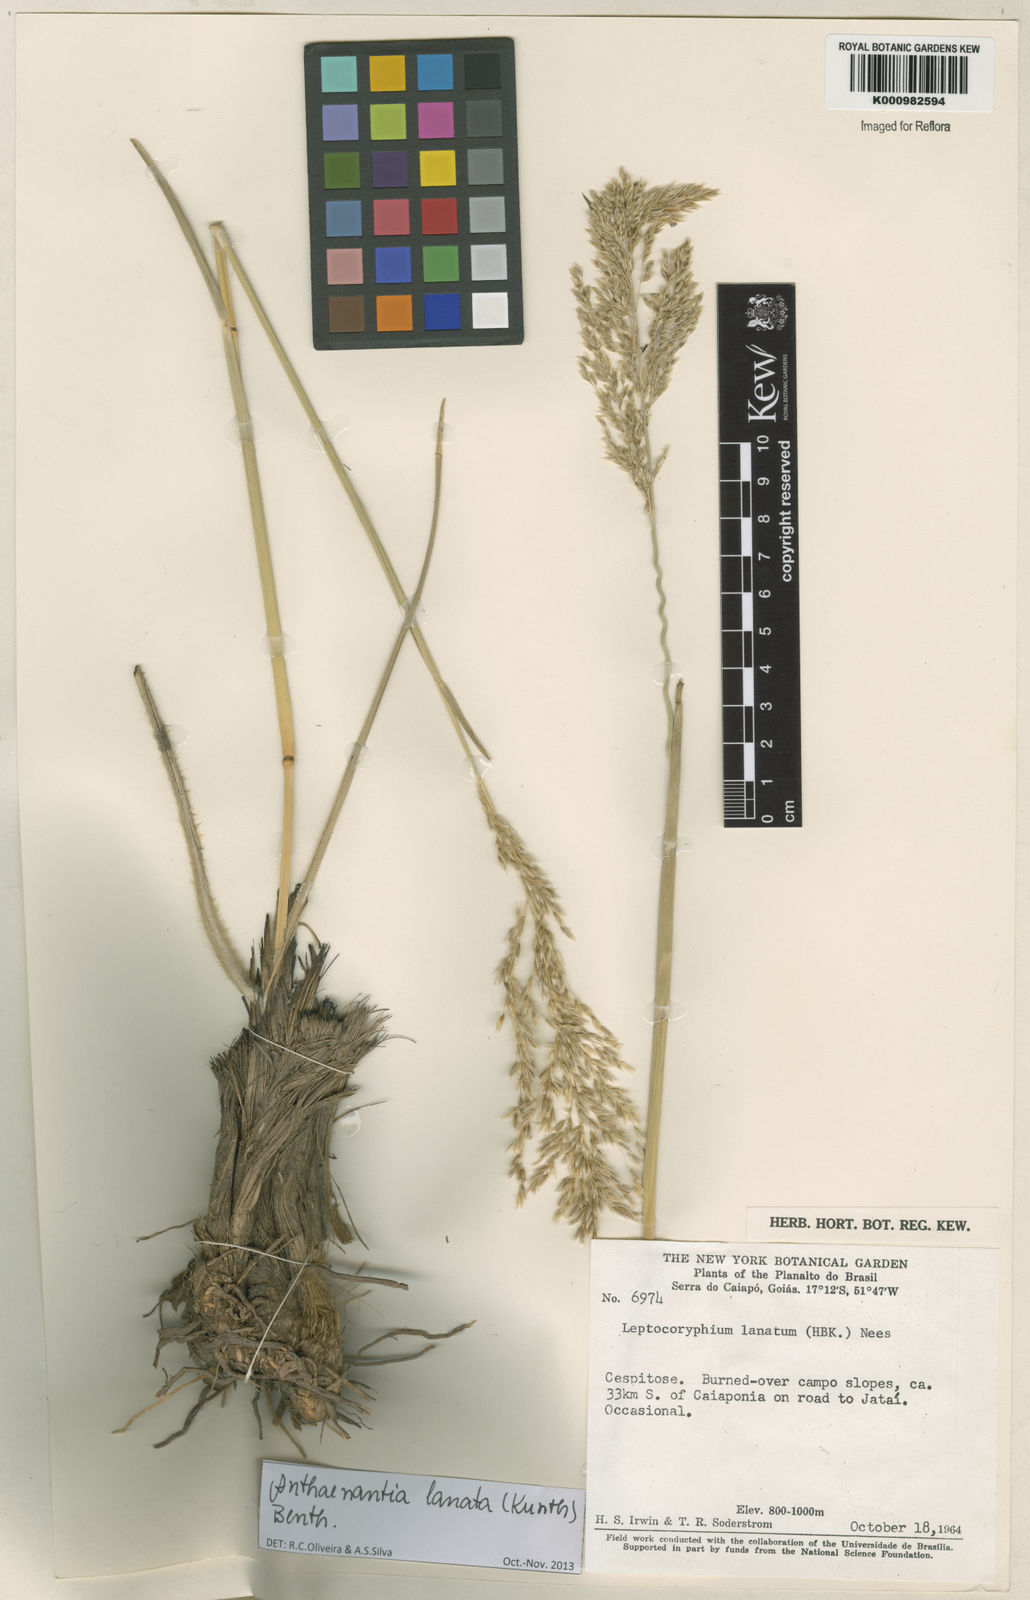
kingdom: Plantae
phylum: Tracheophyta
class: Liliopsida
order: Poales
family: Poaceae
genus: Anthenantia
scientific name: Anthenantia lanata
